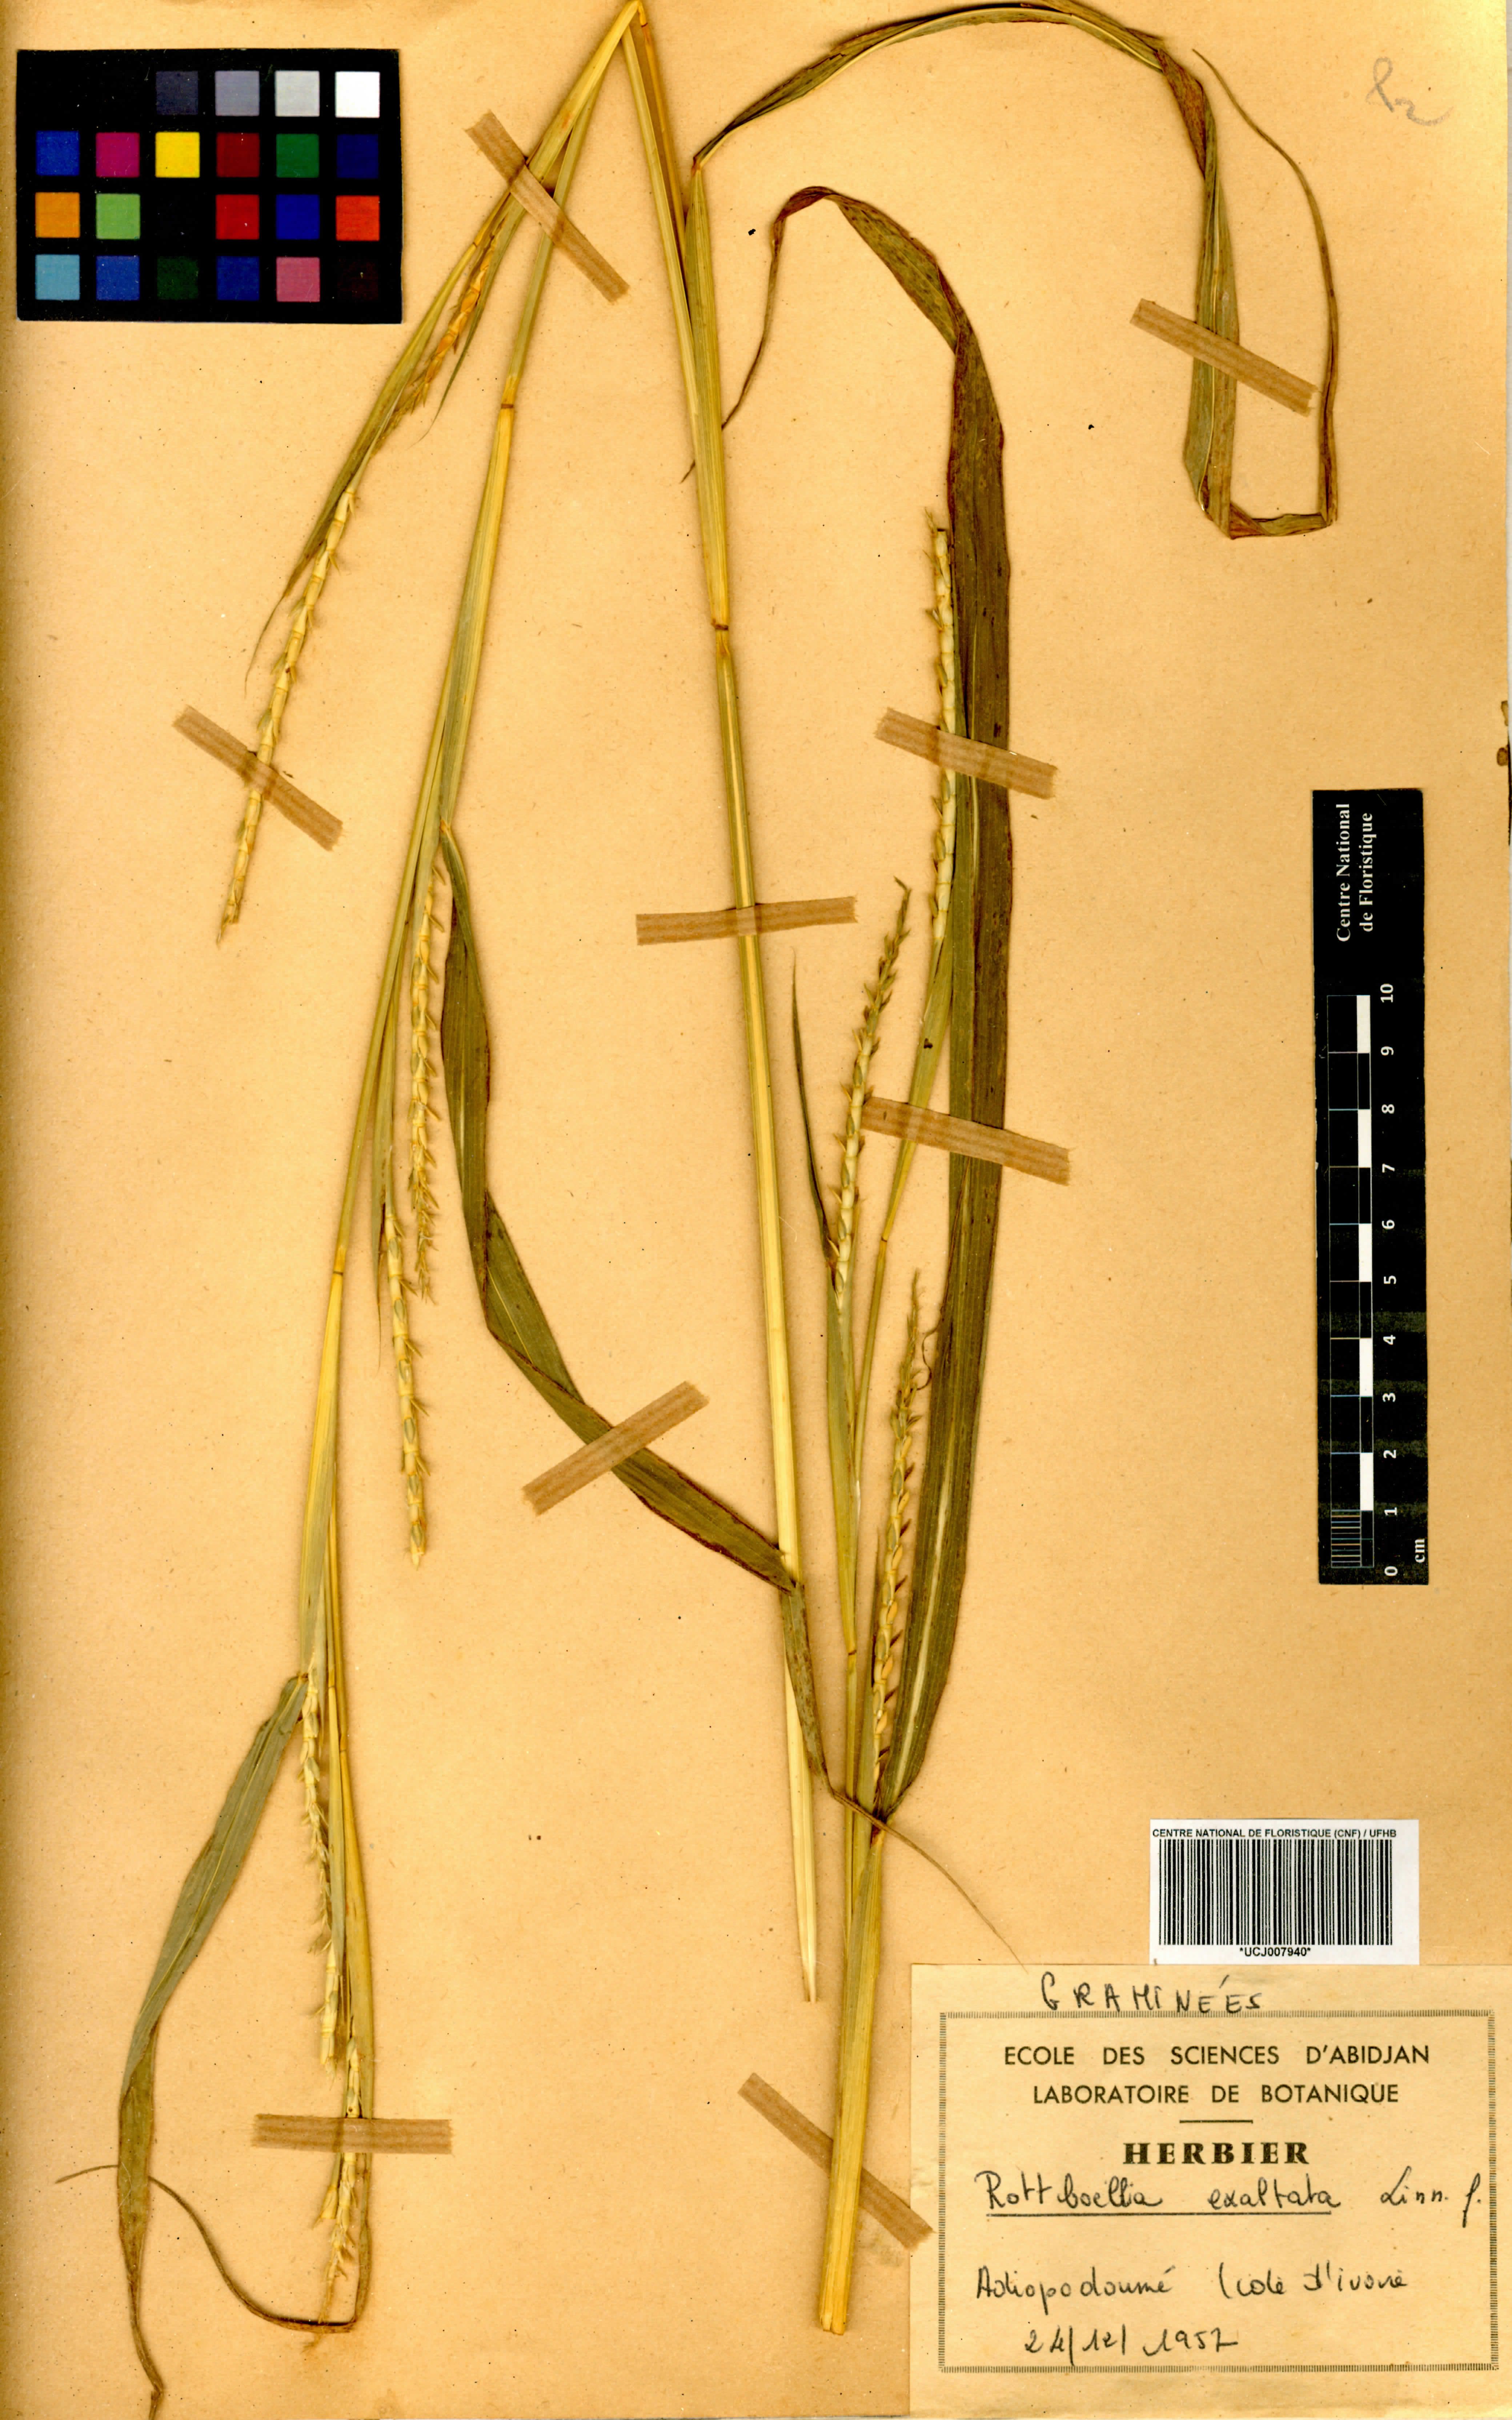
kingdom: Plantae
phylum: Tracheophyta
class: Liliopsida
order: Poales
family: Poaceae
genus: Rottboellia
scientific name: Rottboellia
